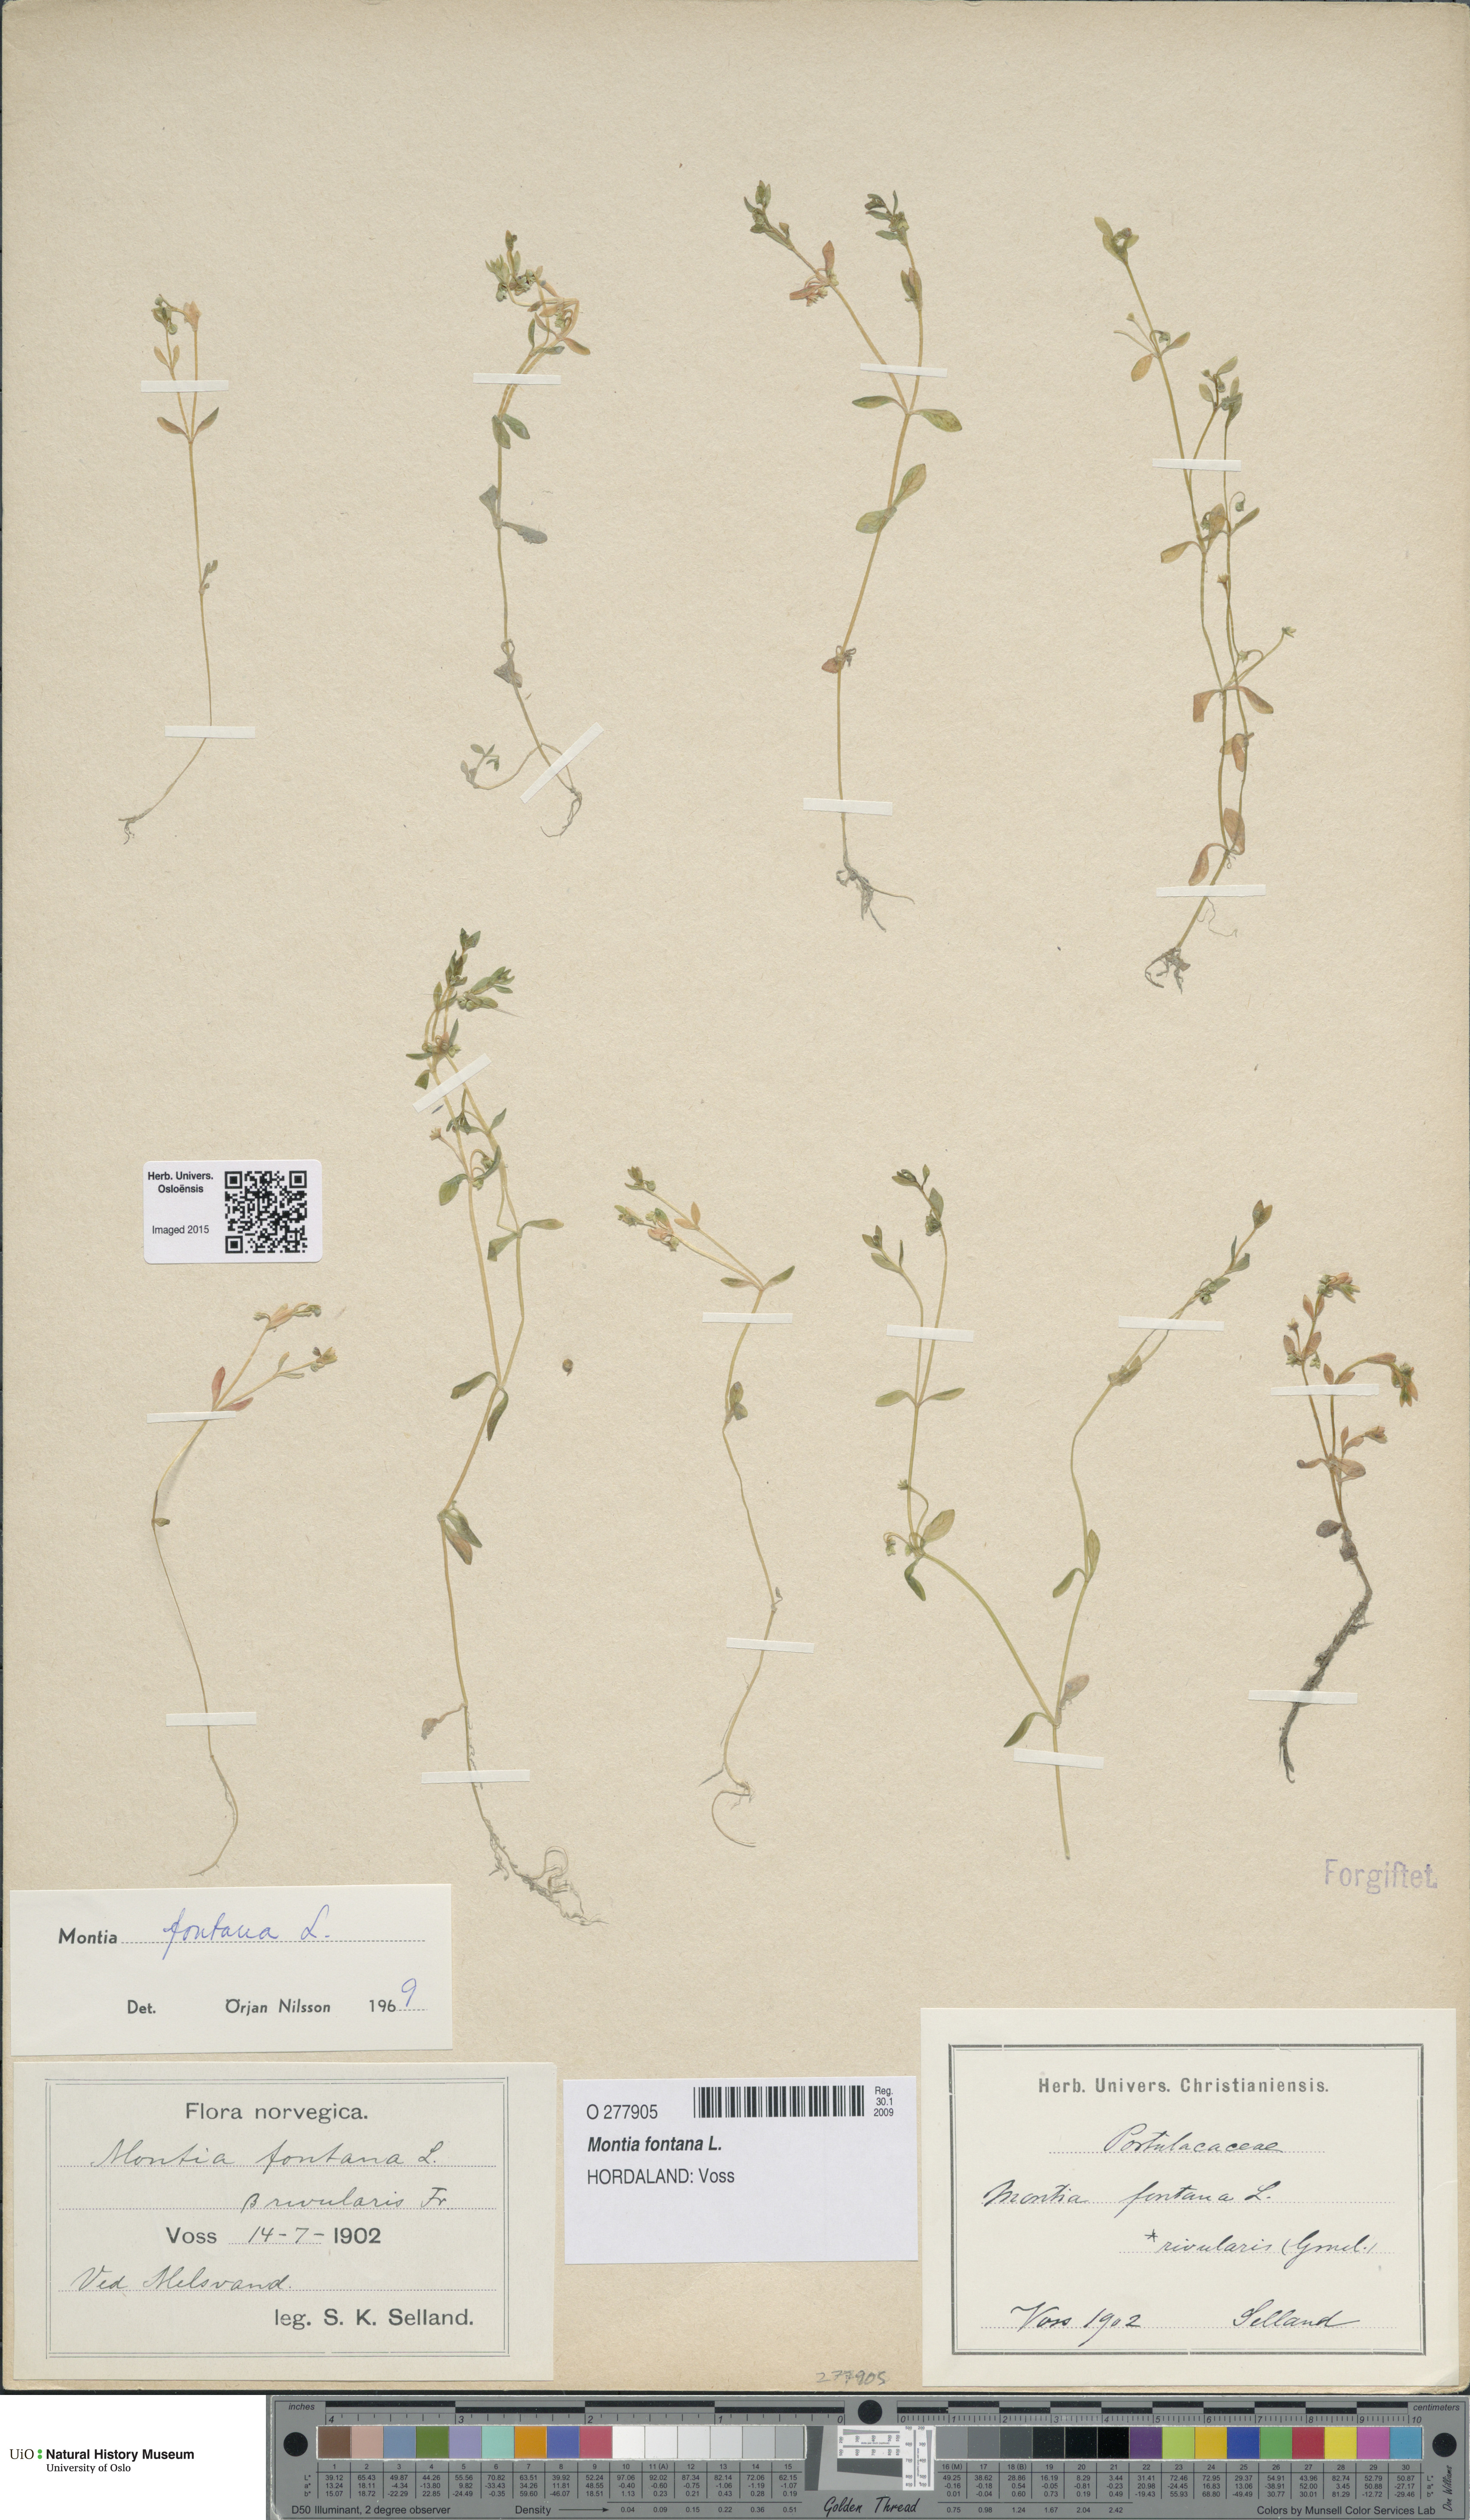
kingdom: Plantae
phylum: Tracheophyta
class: Magnoliopsida
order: Caryophyllales
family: Montiaceae
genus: Montia
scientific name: Montia fontana
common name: Blinks
